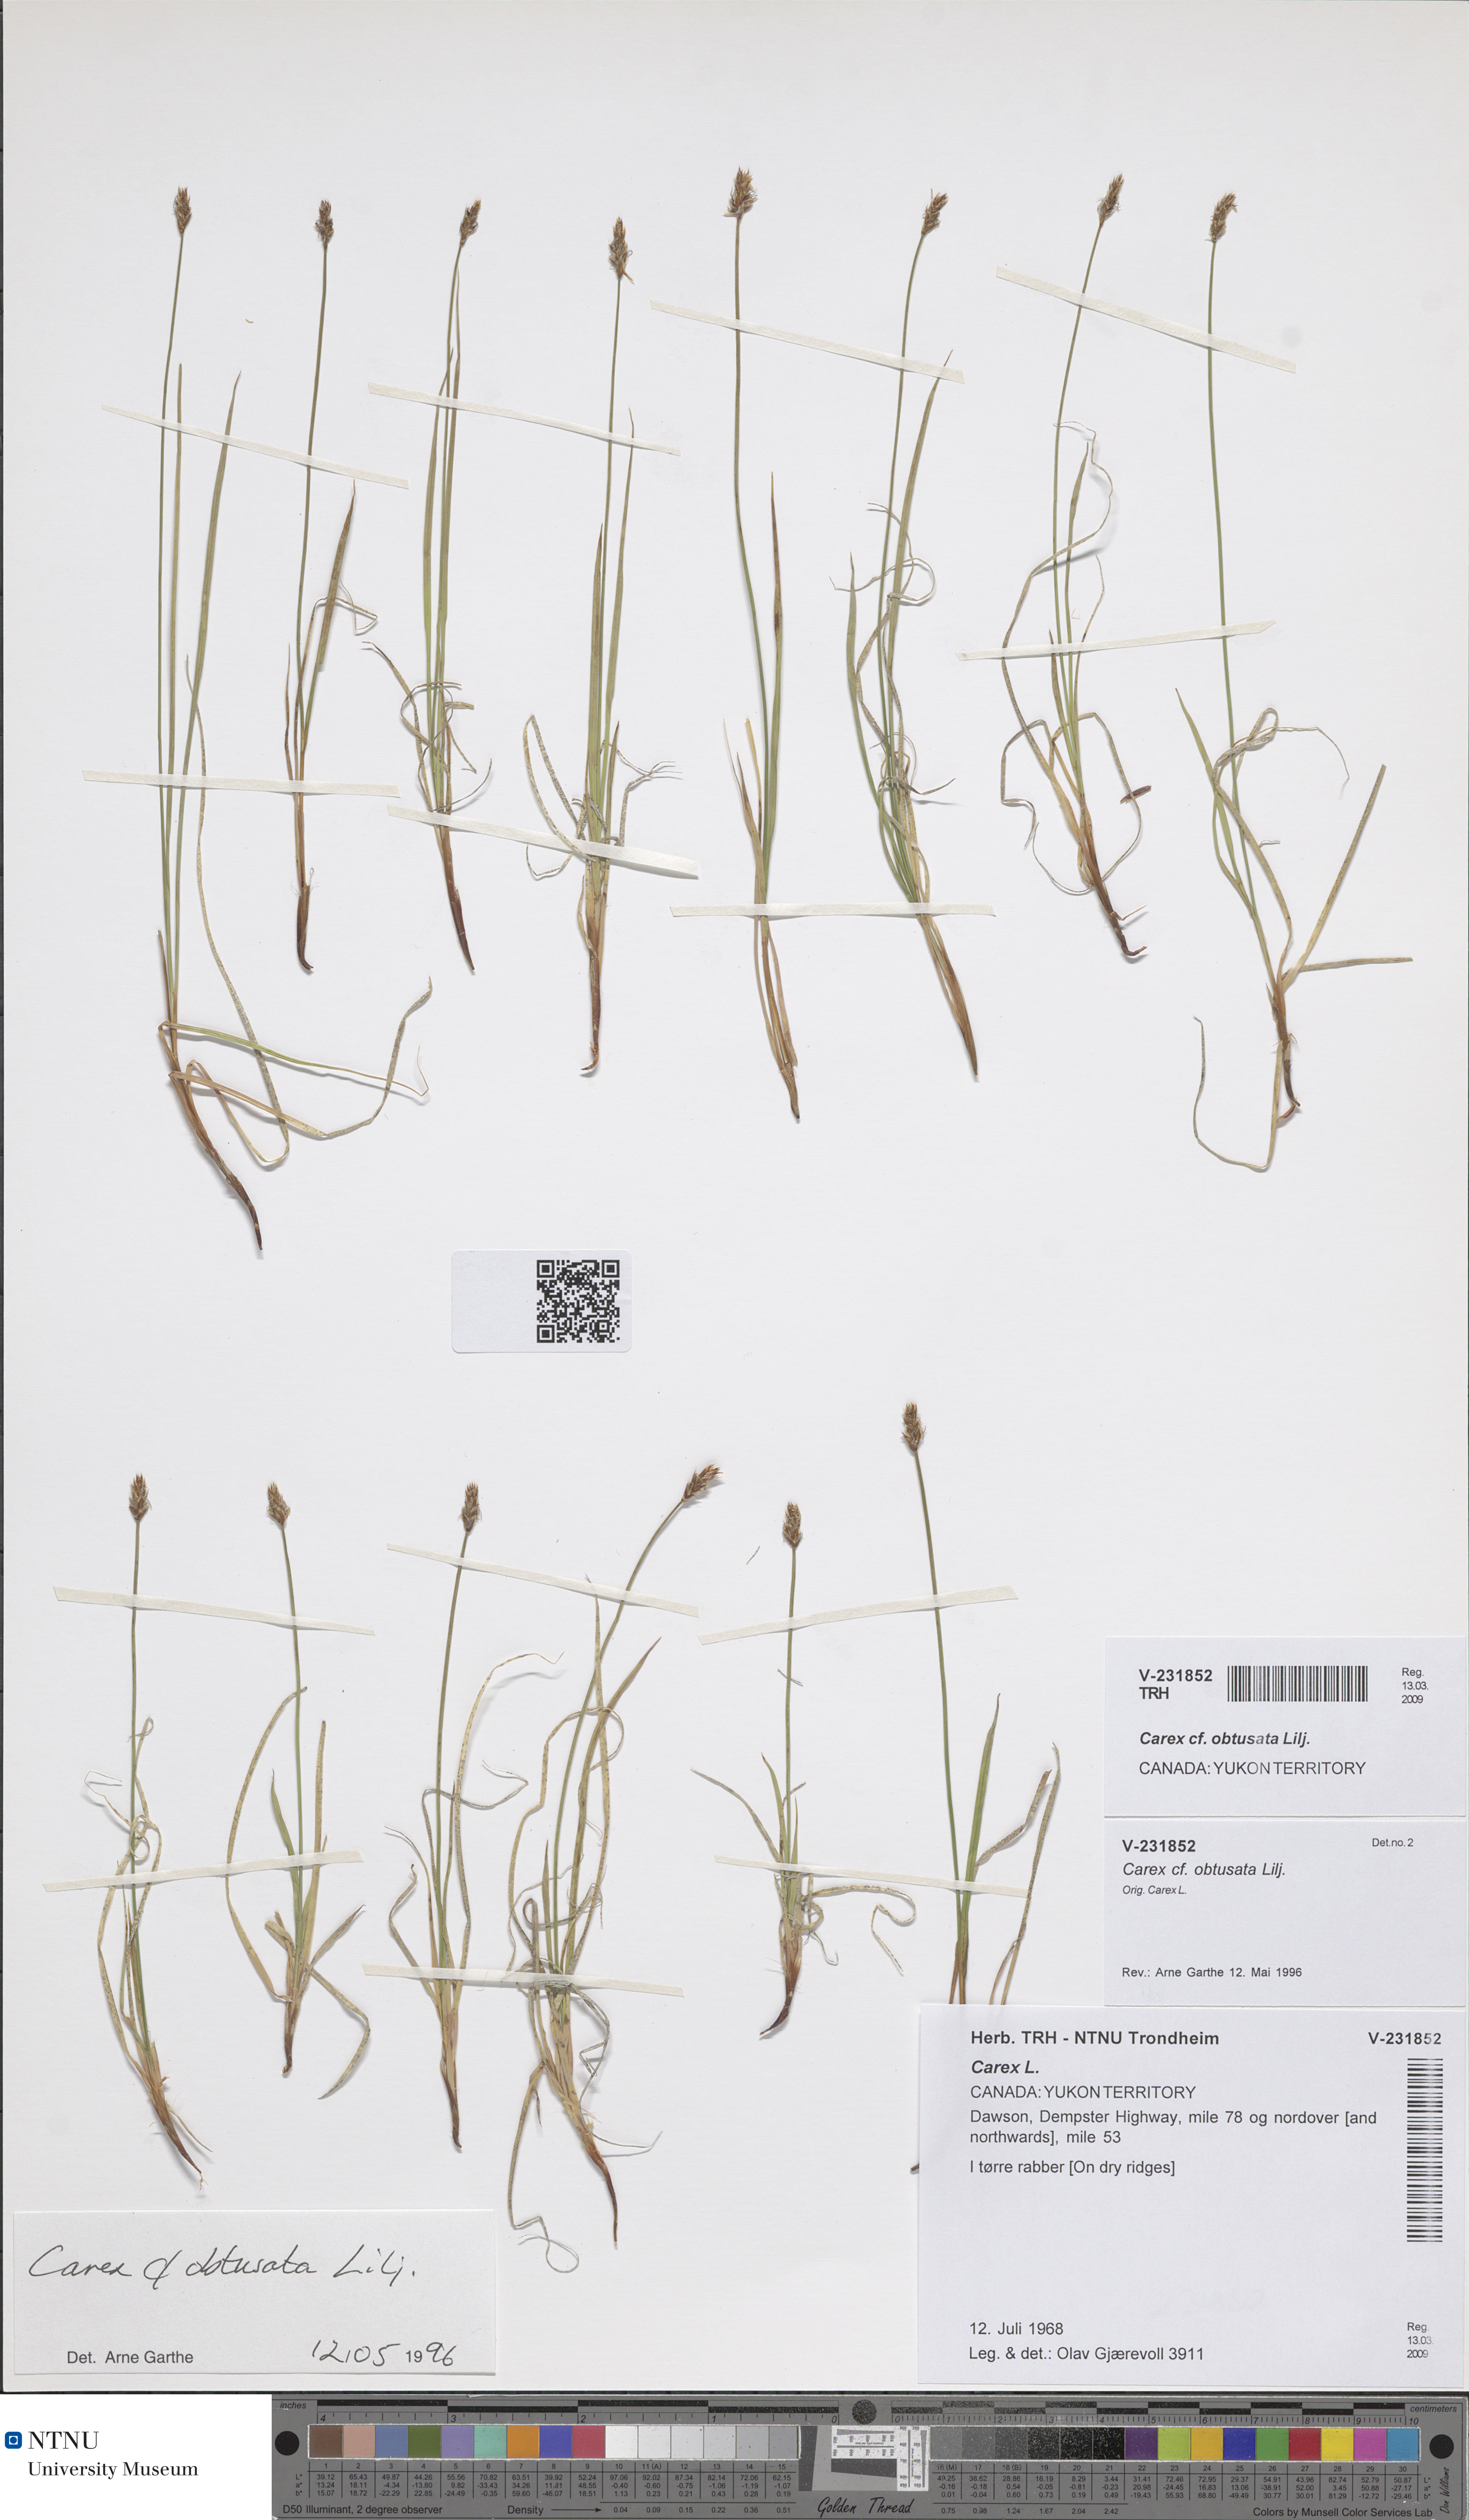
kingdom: Plantae
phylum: Tracheophyta
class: Liliopsida
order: Poales
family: Cyperaceae
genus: Carex
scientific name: Carex obtusata
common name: Blunt sedge
